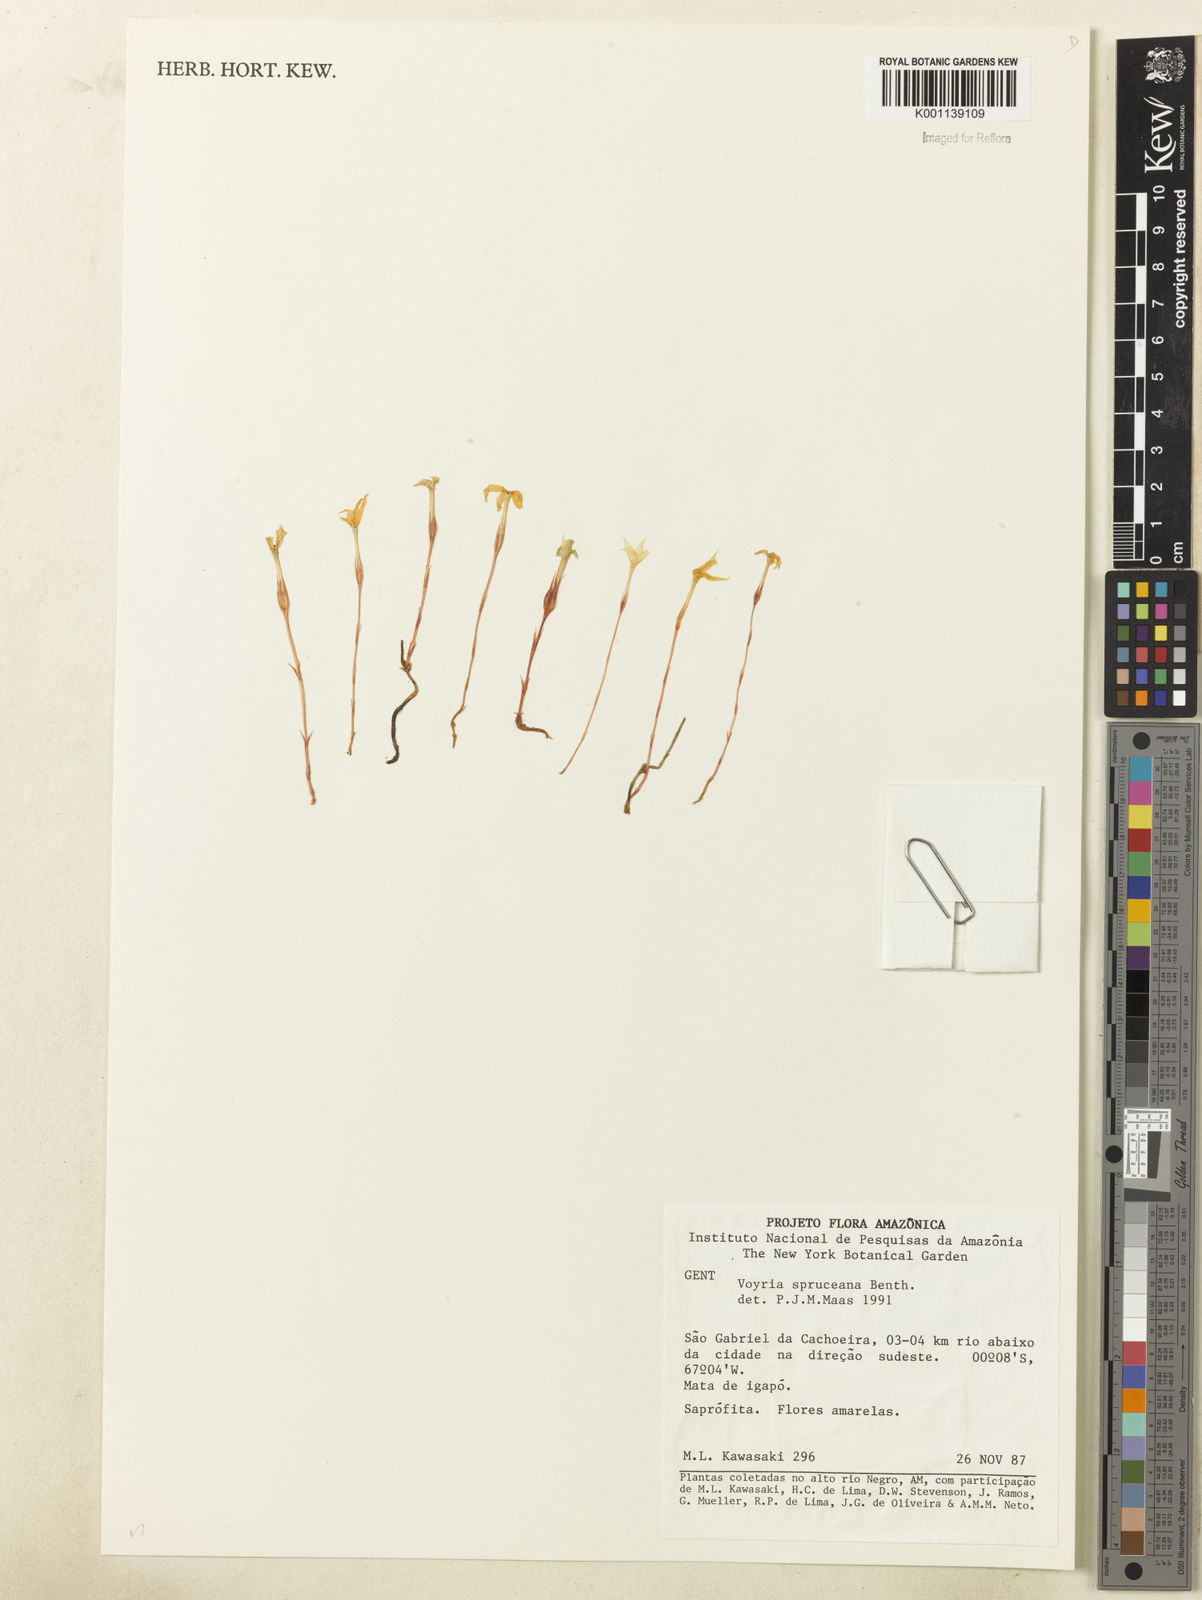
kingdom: Plantae
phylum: Tracheophyta
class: Magnoliopsida
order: Gentianales
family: Gentianaceae
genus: Voyria
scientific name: Voyria spruceana
